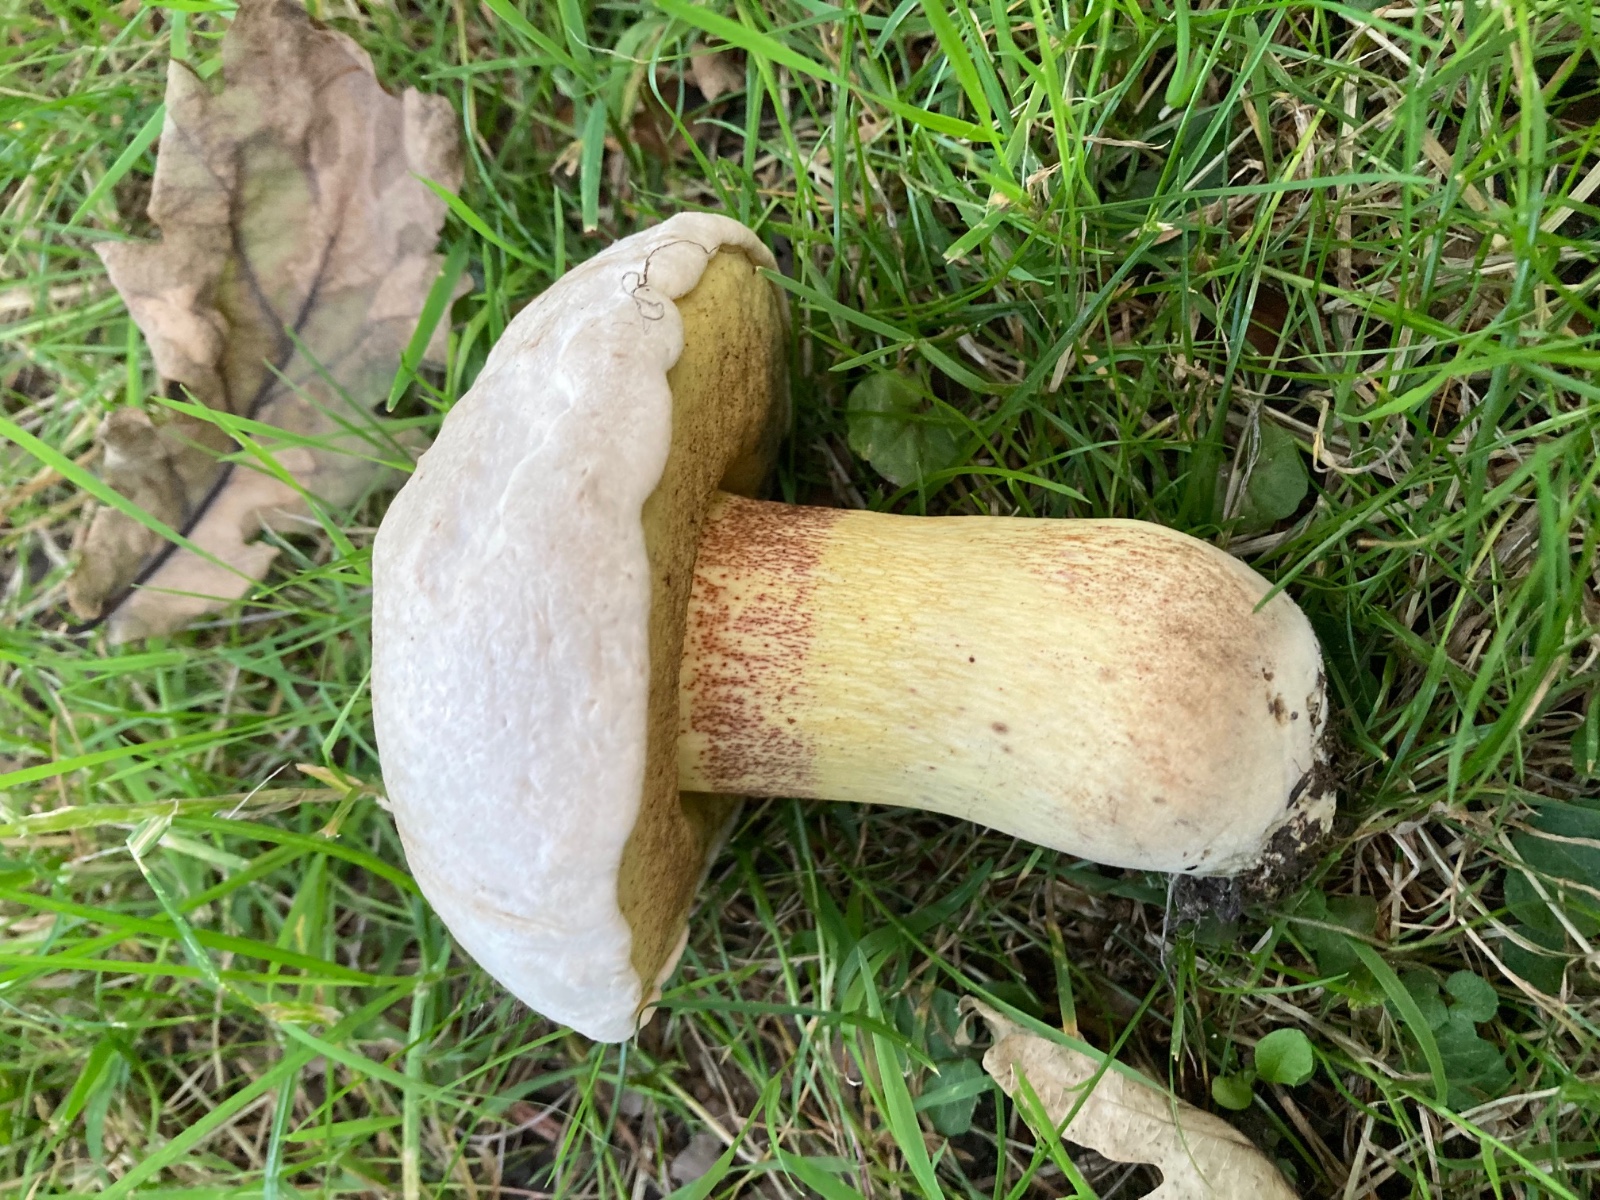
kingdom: Fungi
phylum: Basidiomycota
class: Agaricomycetes
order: Boletales
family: Boletaceae
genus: Caloboletus
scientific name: Caloboletus radicans
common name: rod-rørhat
